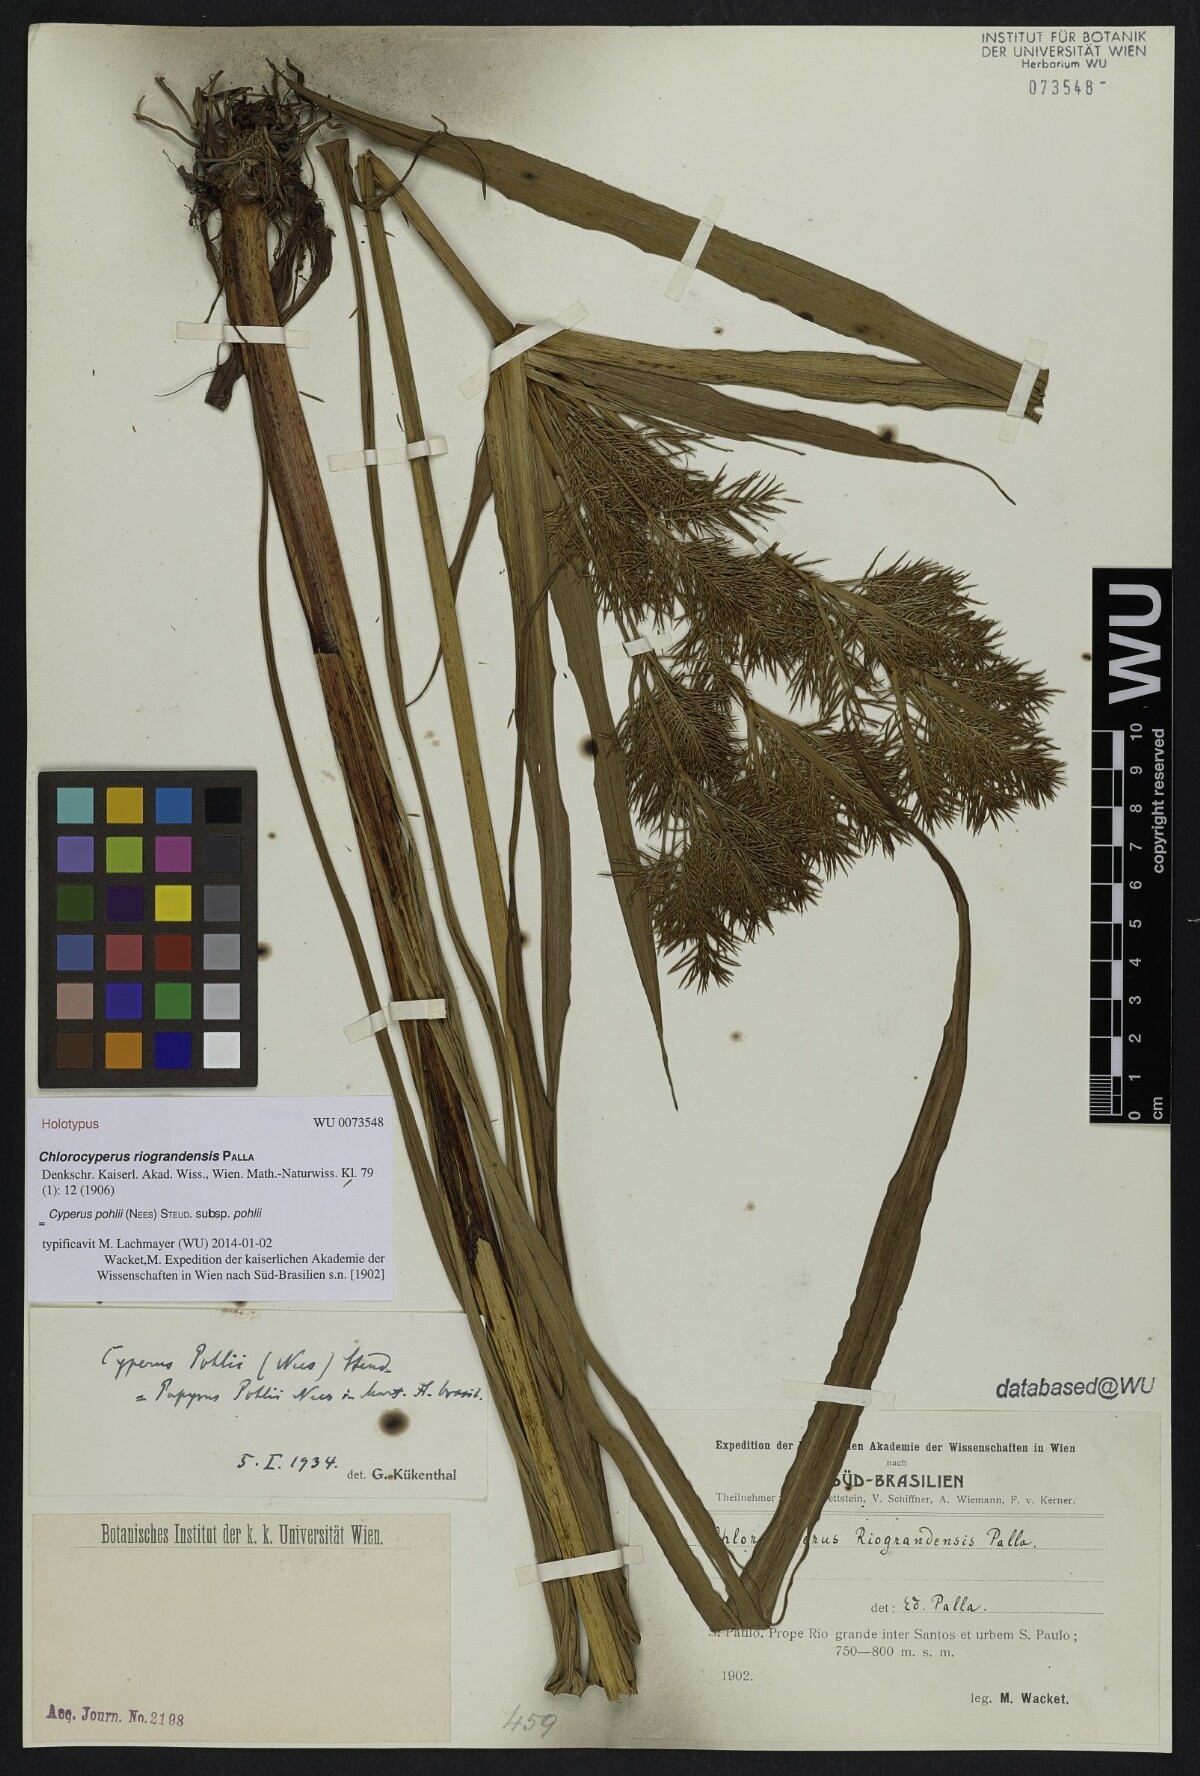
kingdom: Plantae
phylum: Tracheophyta
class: Liliopsida
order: Poales
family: Cyperaceae
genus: Cyperus
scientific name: Cyperus pohlii
